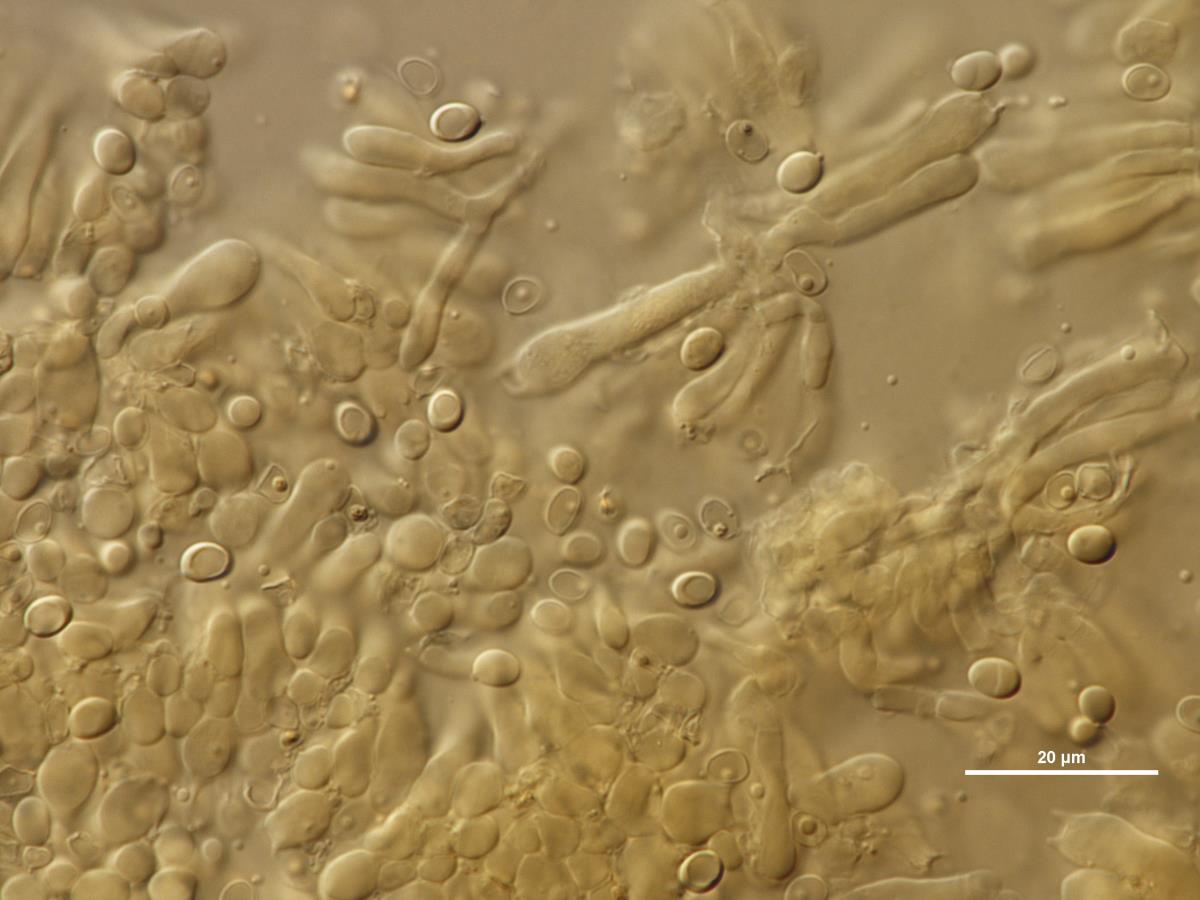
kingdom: Fungi
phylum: Basidiomycota
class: Agaricomycetes
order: Agaricales
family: Lyophyllaceae
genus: Calocybe
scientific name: Calocybe onychina
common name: Lilac domecap
